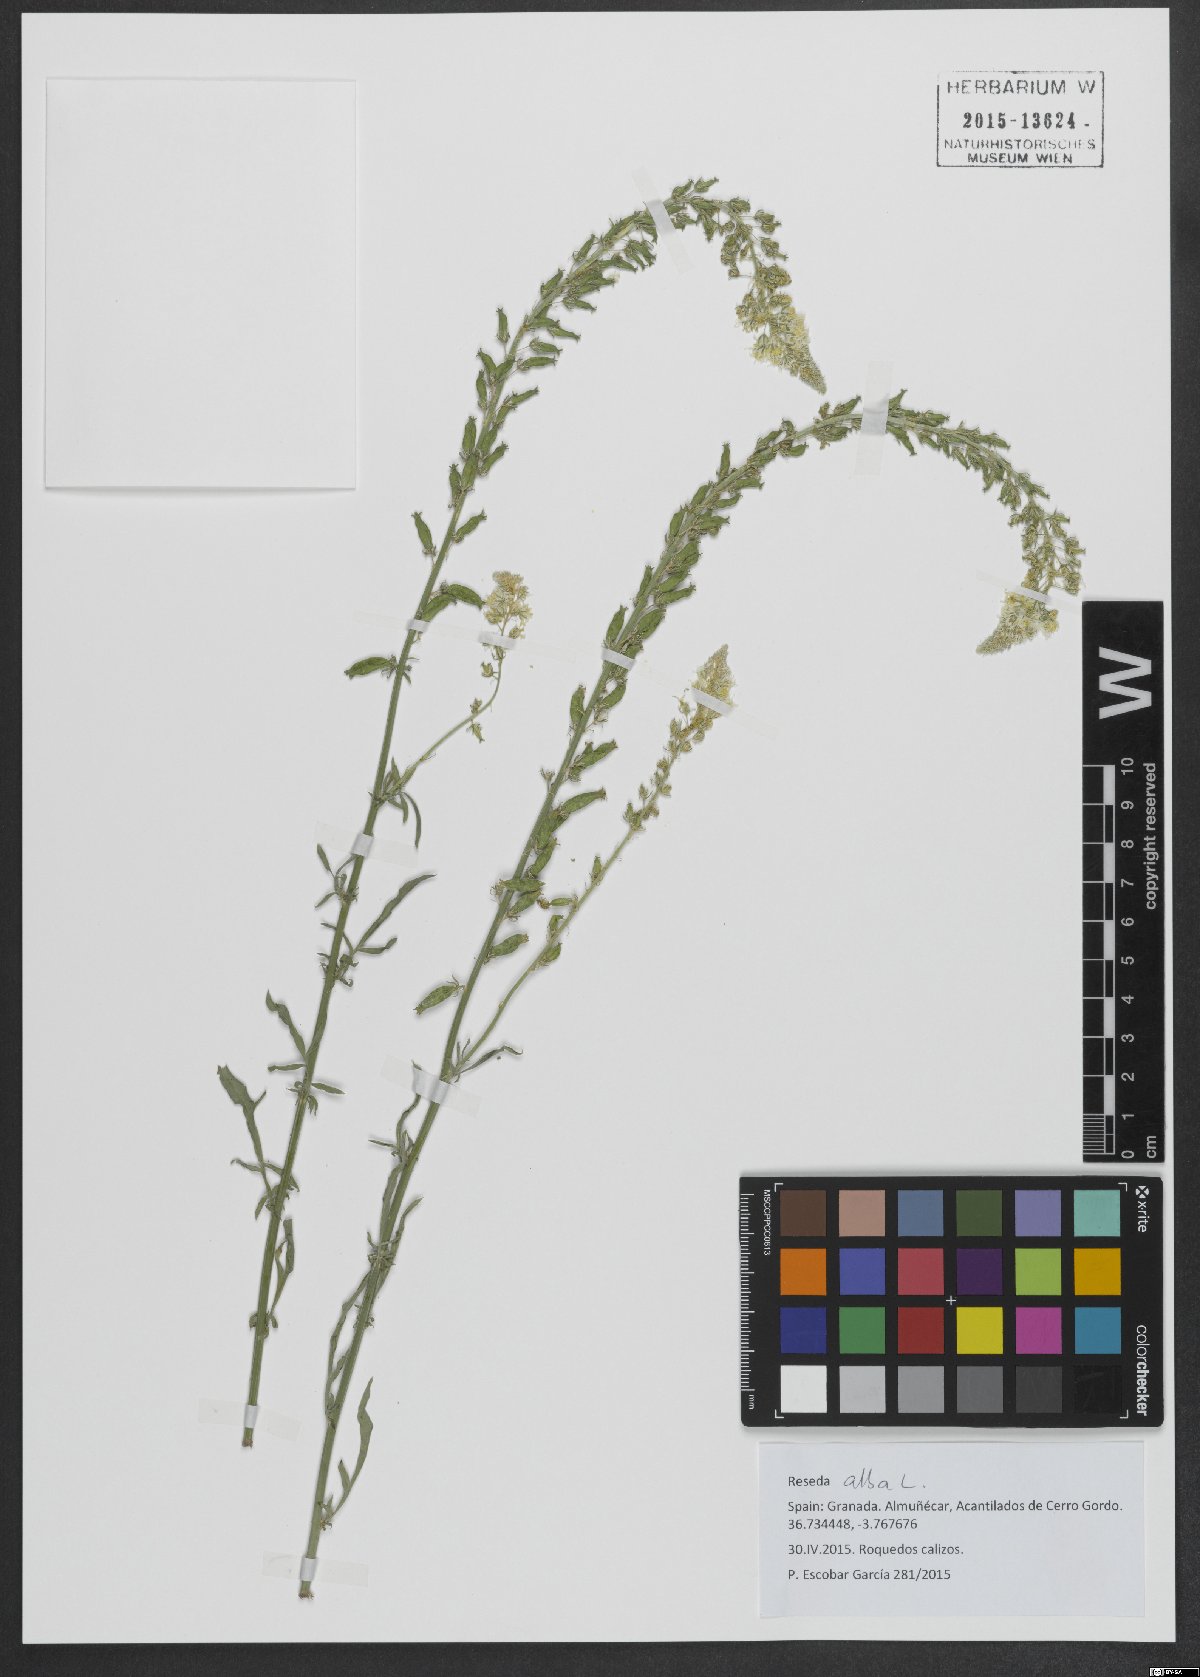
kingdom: Plantae
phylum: Tracheophyta
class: Magnoliopsida
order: Brassicales
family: Resedaceae
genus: Reseda
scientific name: Reseda alba
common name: White mignonette
